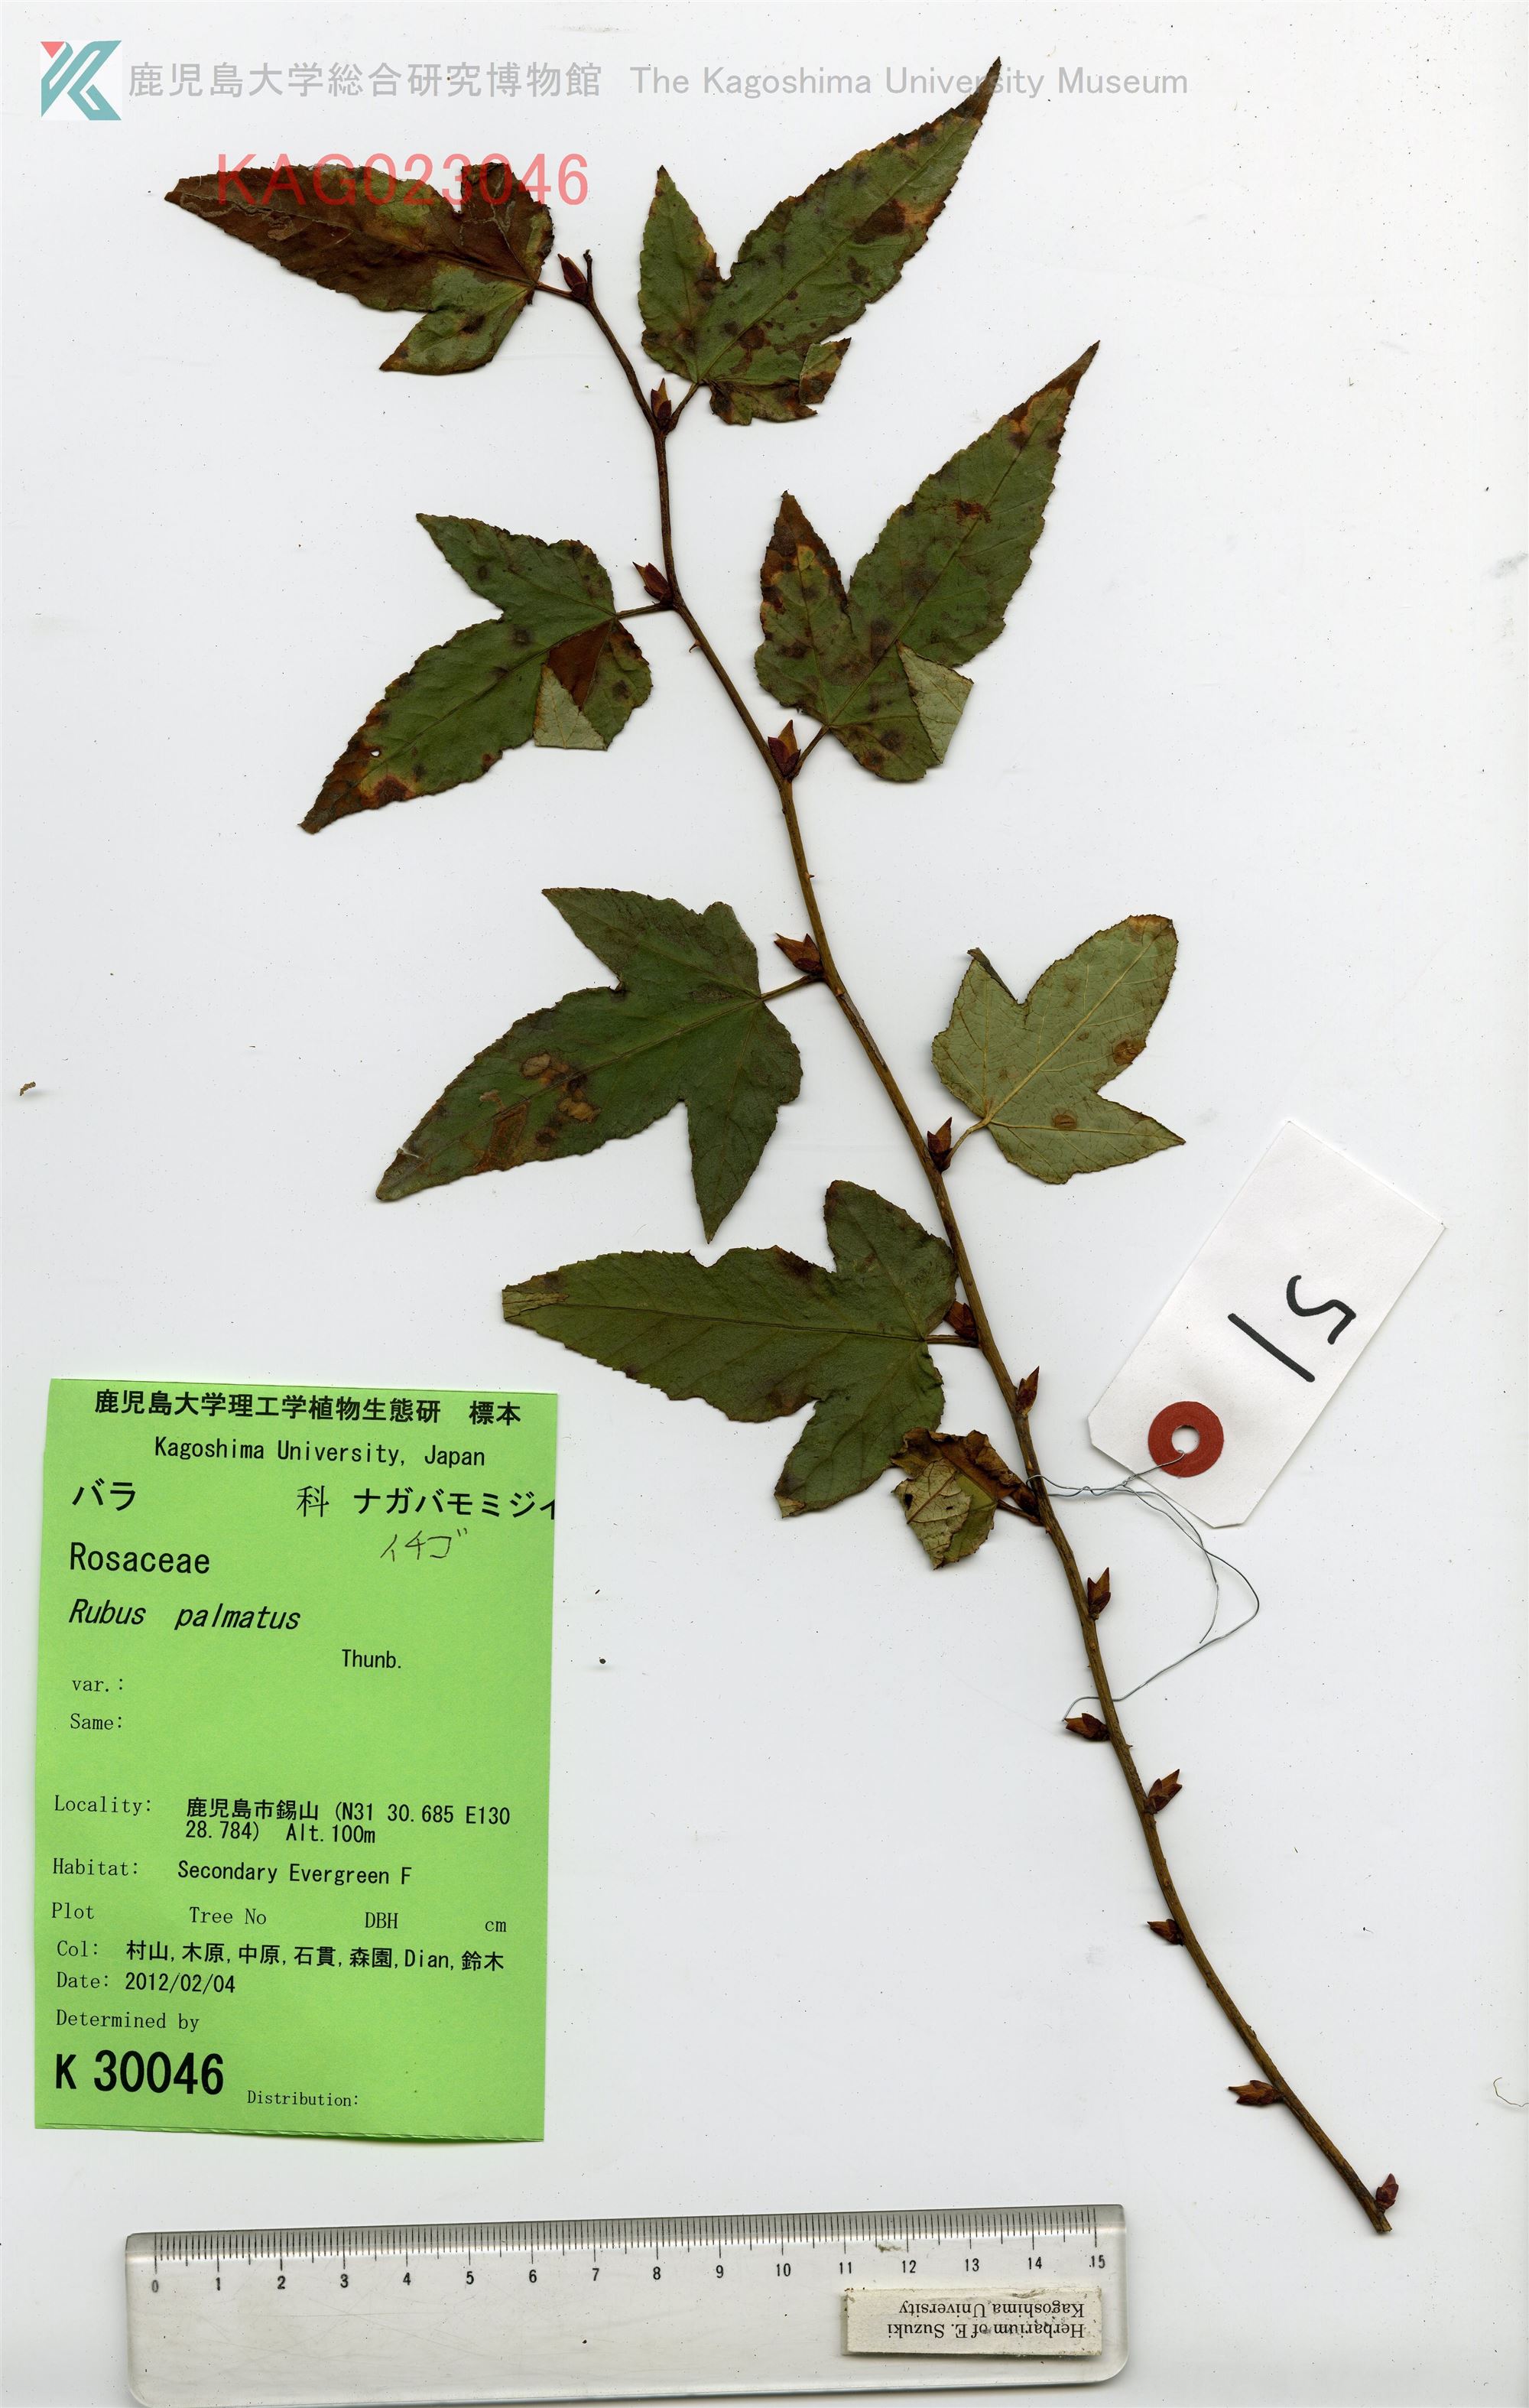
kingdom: Plantae
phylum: Tracheophyta
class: Magnoliopsida
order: Rosales
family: Rosaceae
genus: Rubus
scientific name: Rubus palmatus
